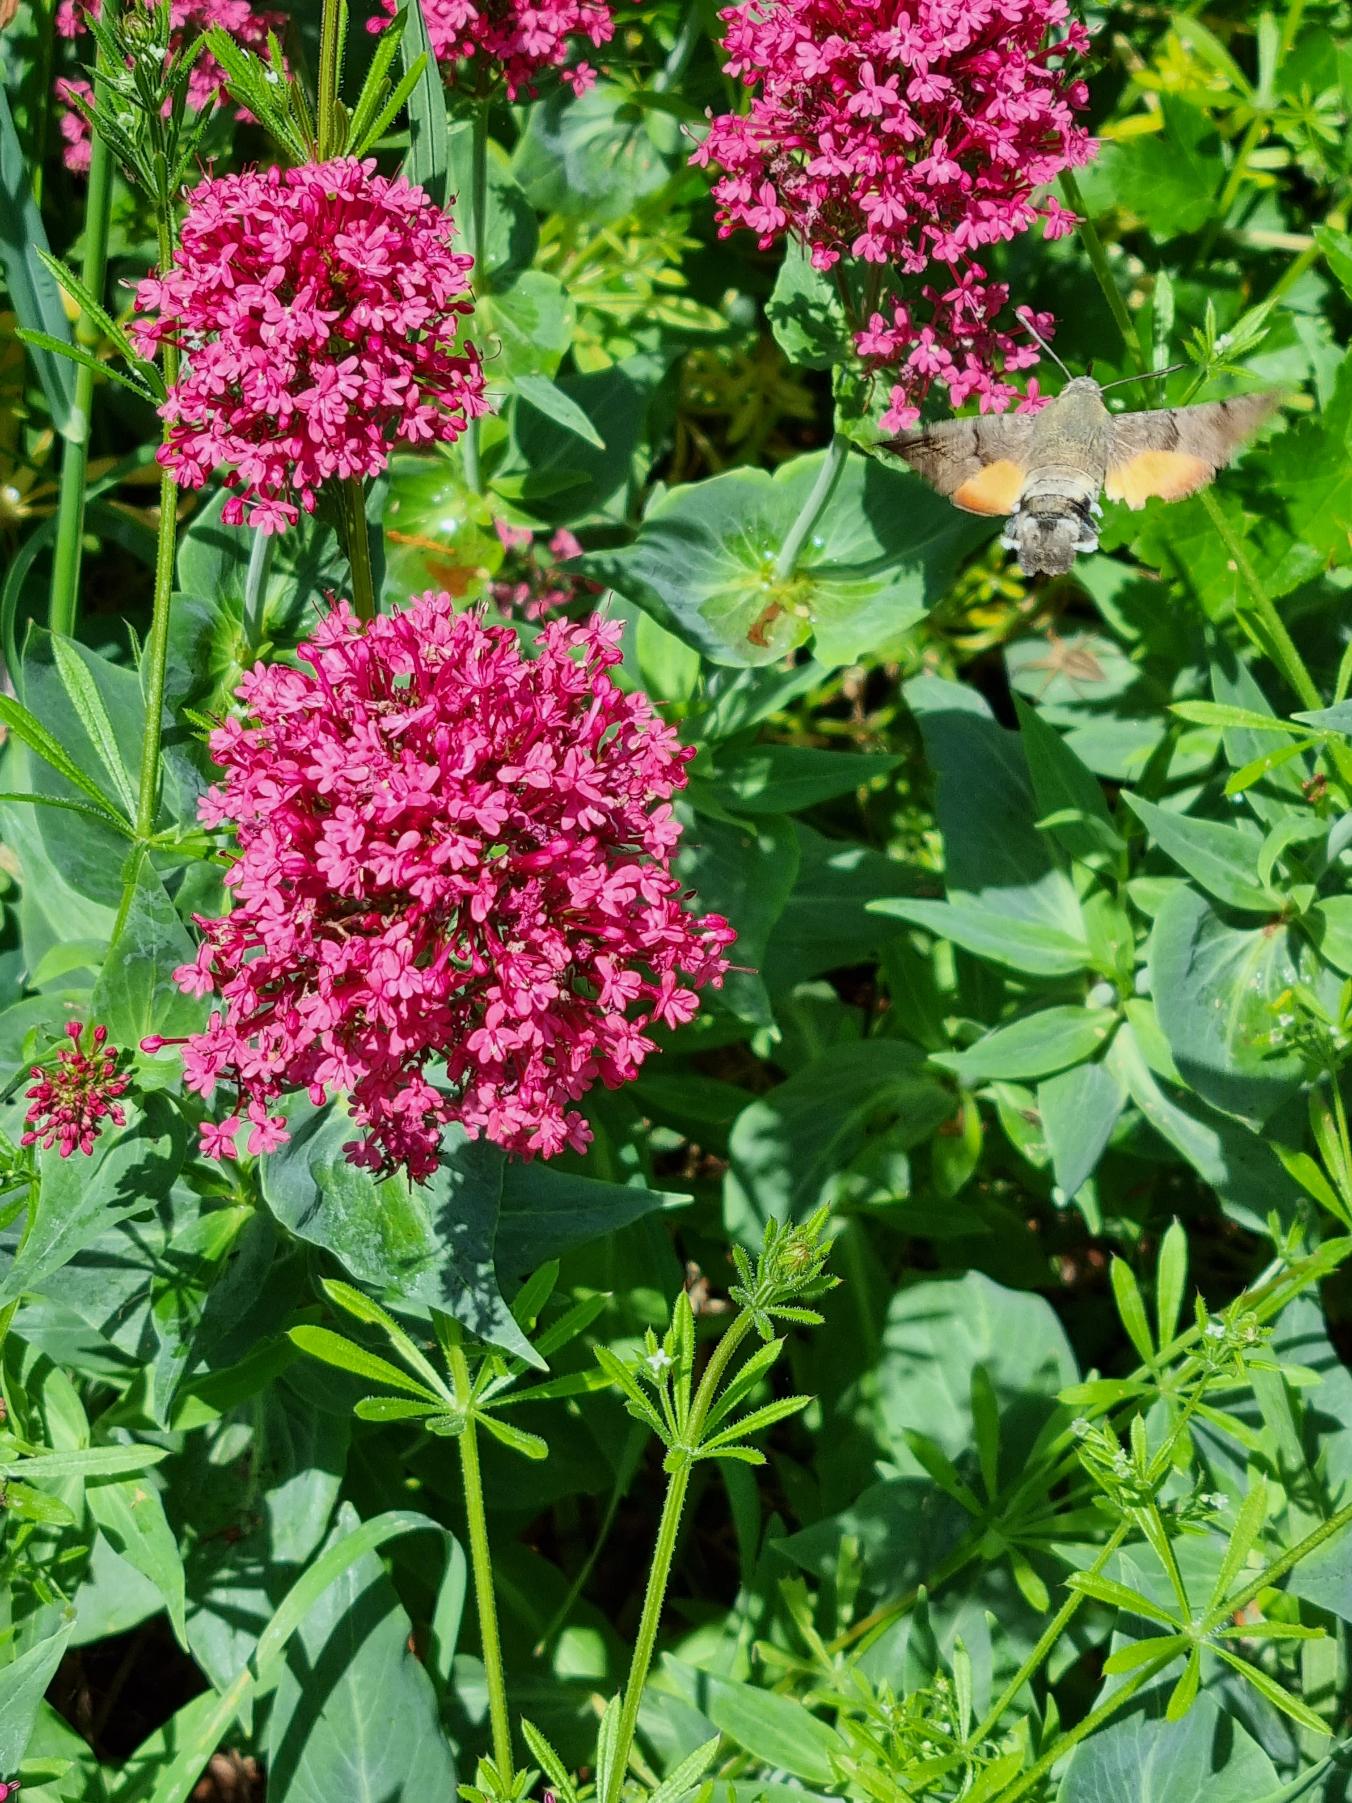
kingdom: Animalia
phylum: Arthropoda
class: Insecta
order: Lepidoptera
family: Sphingidae
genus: Macroglossum
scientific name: Macroglossum stellatarum
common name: Duehale
